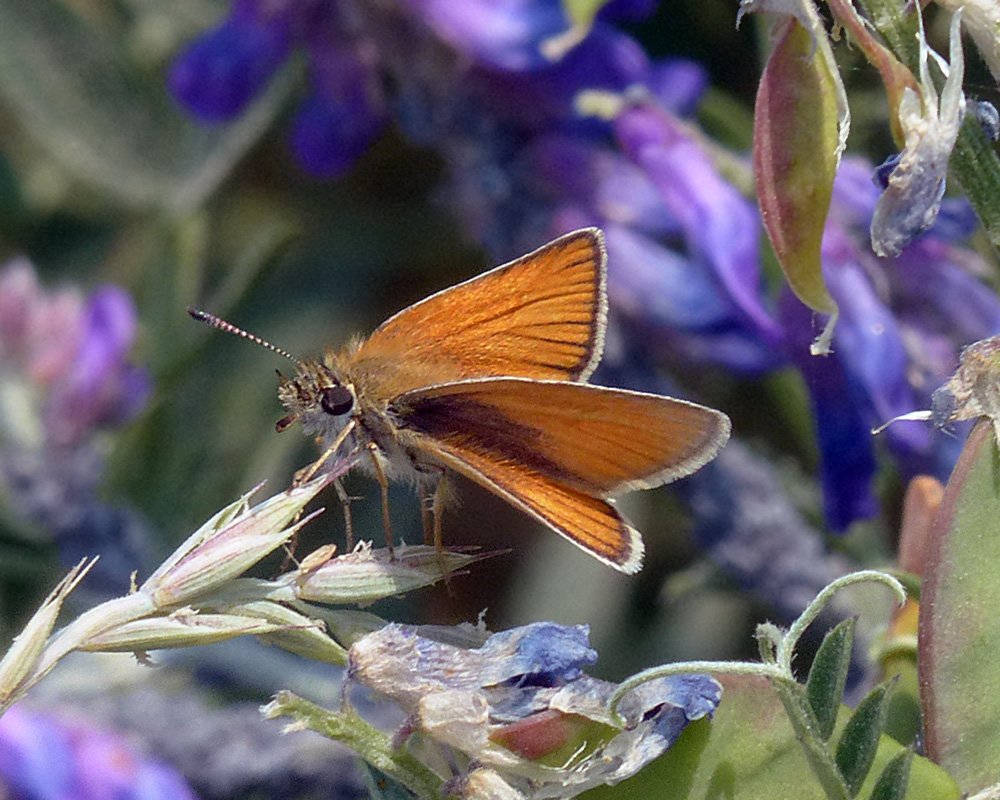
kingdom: Animalia
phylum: Arthropoda
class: Insecta
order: Lepidoptera
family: Hesperiidae
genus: Thymelicus
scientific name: Thymelicus lineola
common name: European Skipper
